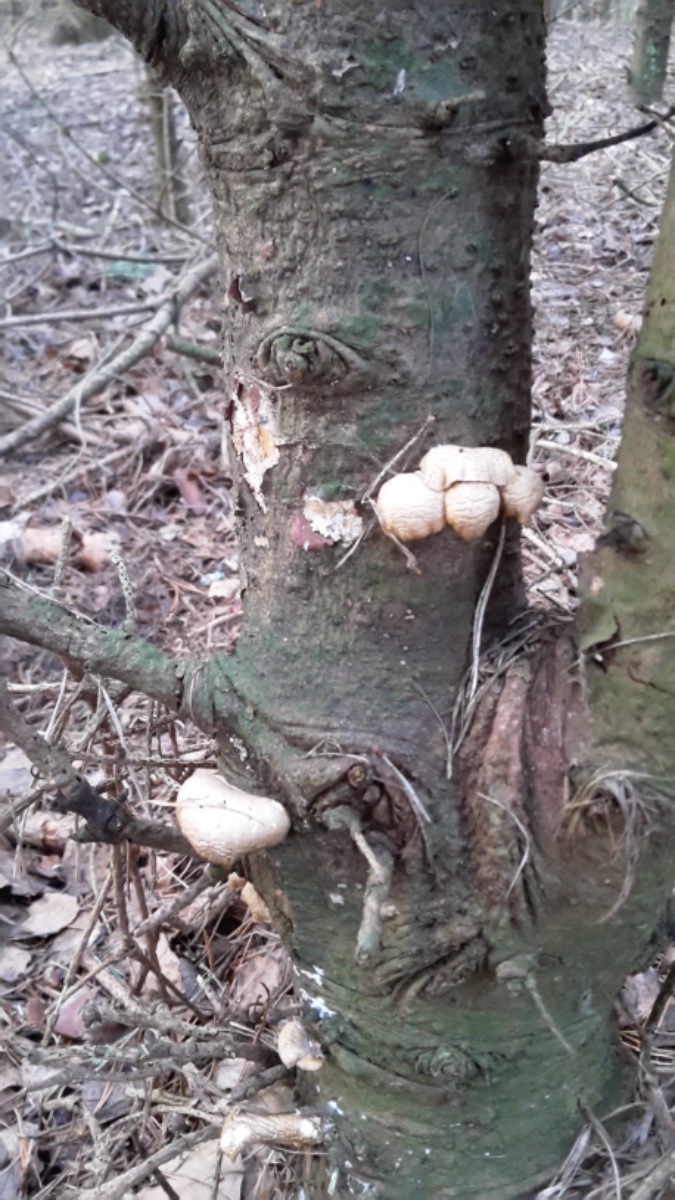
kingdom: Fungi
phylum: Basidiomycota
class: Agaricomycetes
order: Agaricales
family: Pleurotaceae
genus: Pleurotus
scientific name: Pleurotus ostreatus
